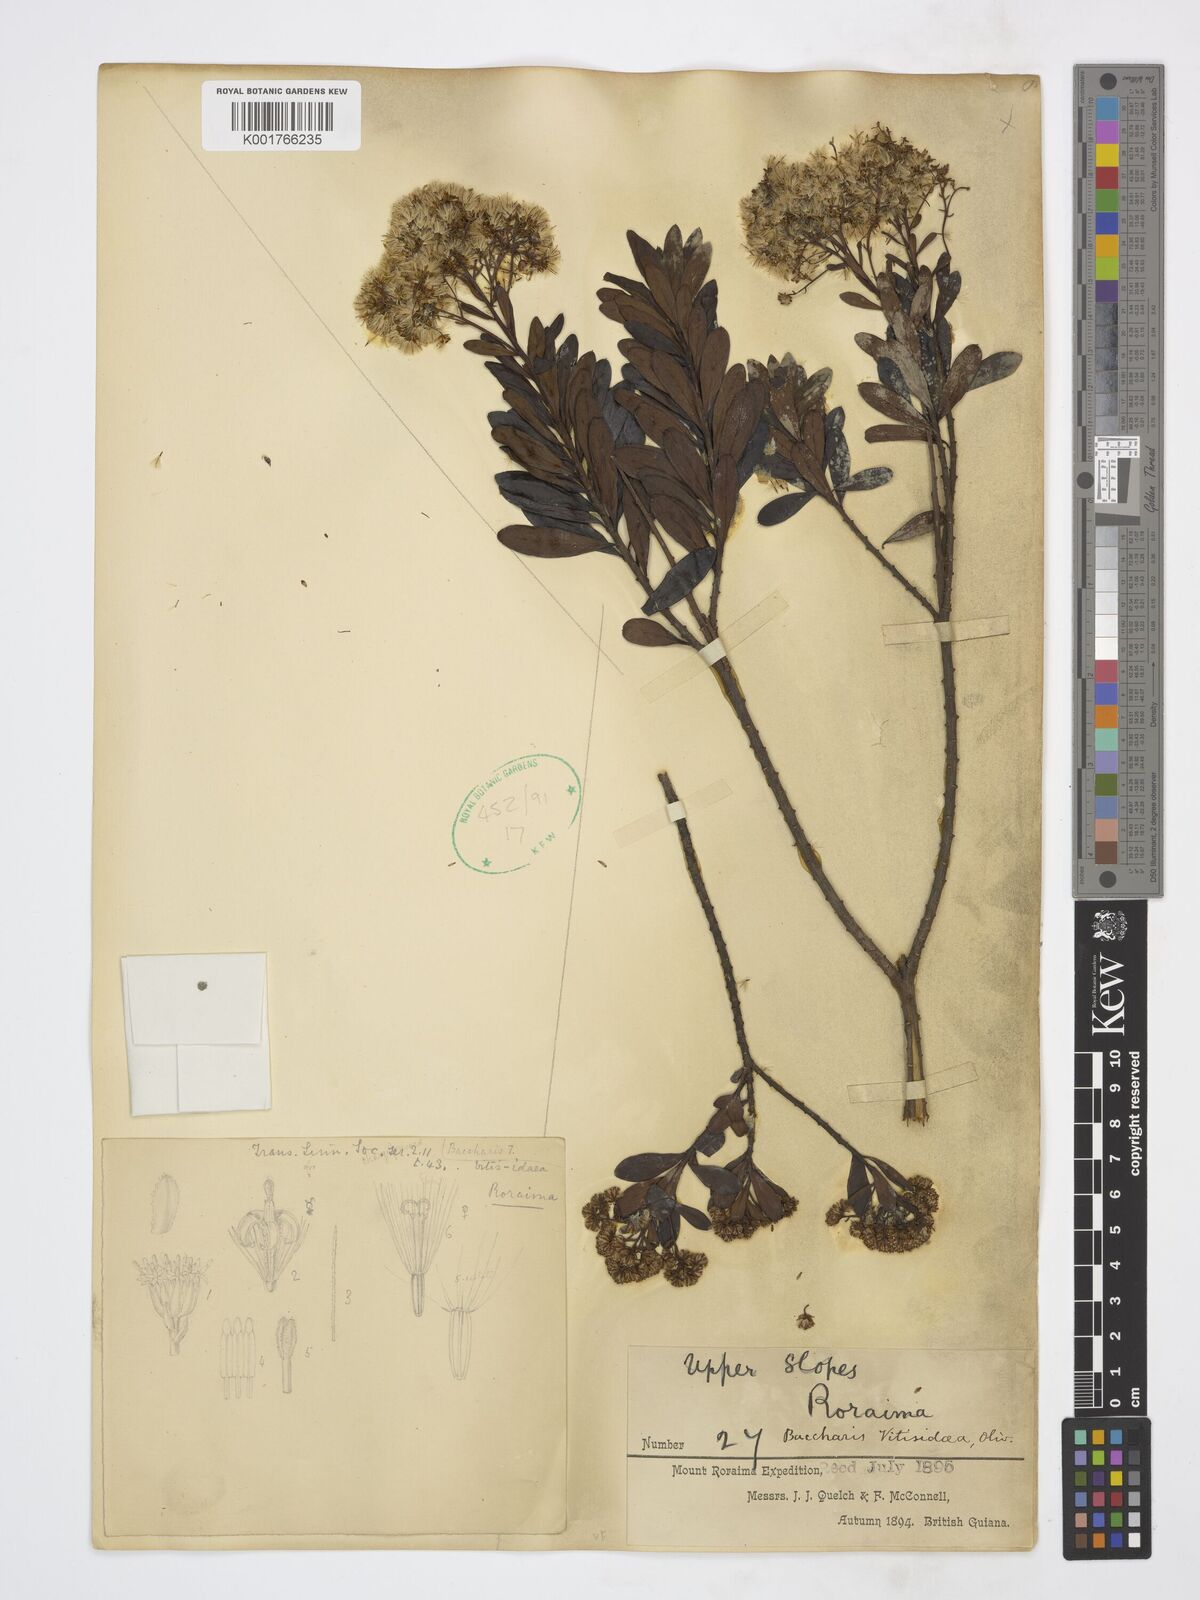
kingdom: Plantae
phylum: Tracheophyta
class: Magnoliopsida
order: Asterales
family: Asteraceae
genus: Baccharis
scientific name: Baccharis ligustrina
